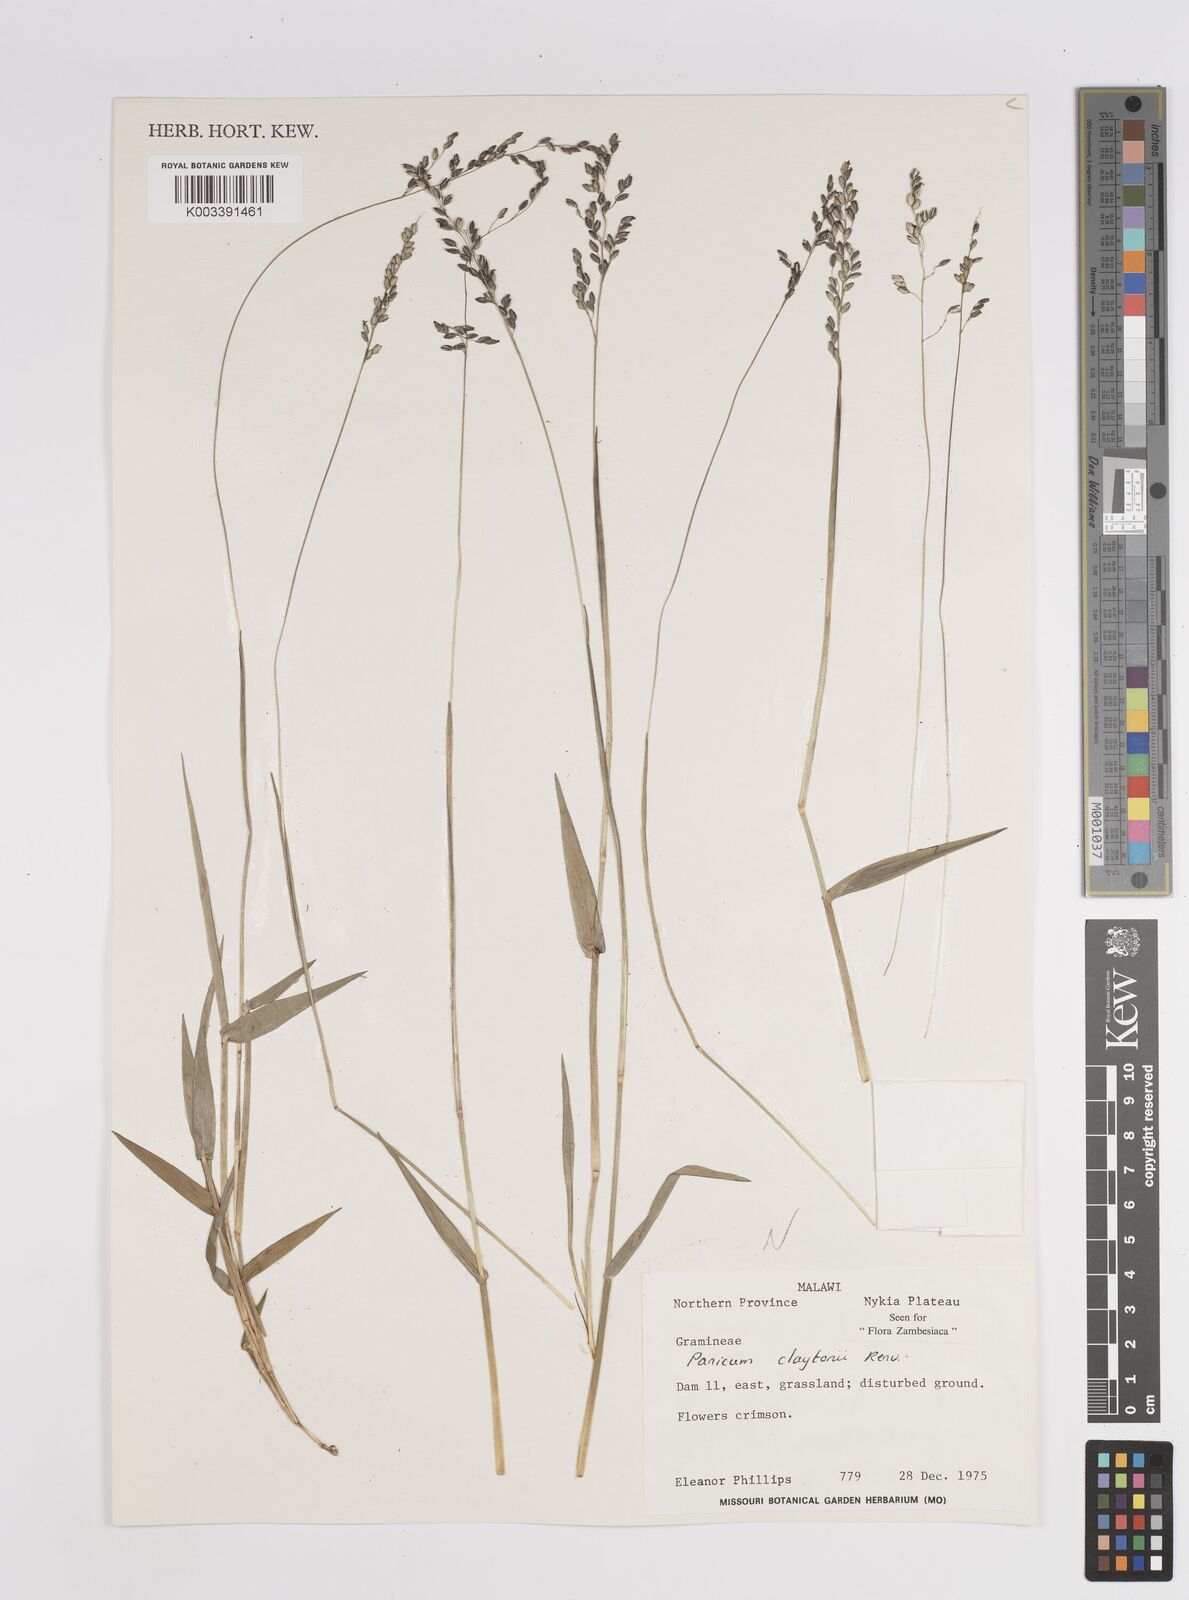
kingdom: Plantae
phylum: Tracheophyta
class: Liliopsida
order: Poales
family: Poaceae
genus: Adenochloa
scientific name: Adenochloa claytonii
